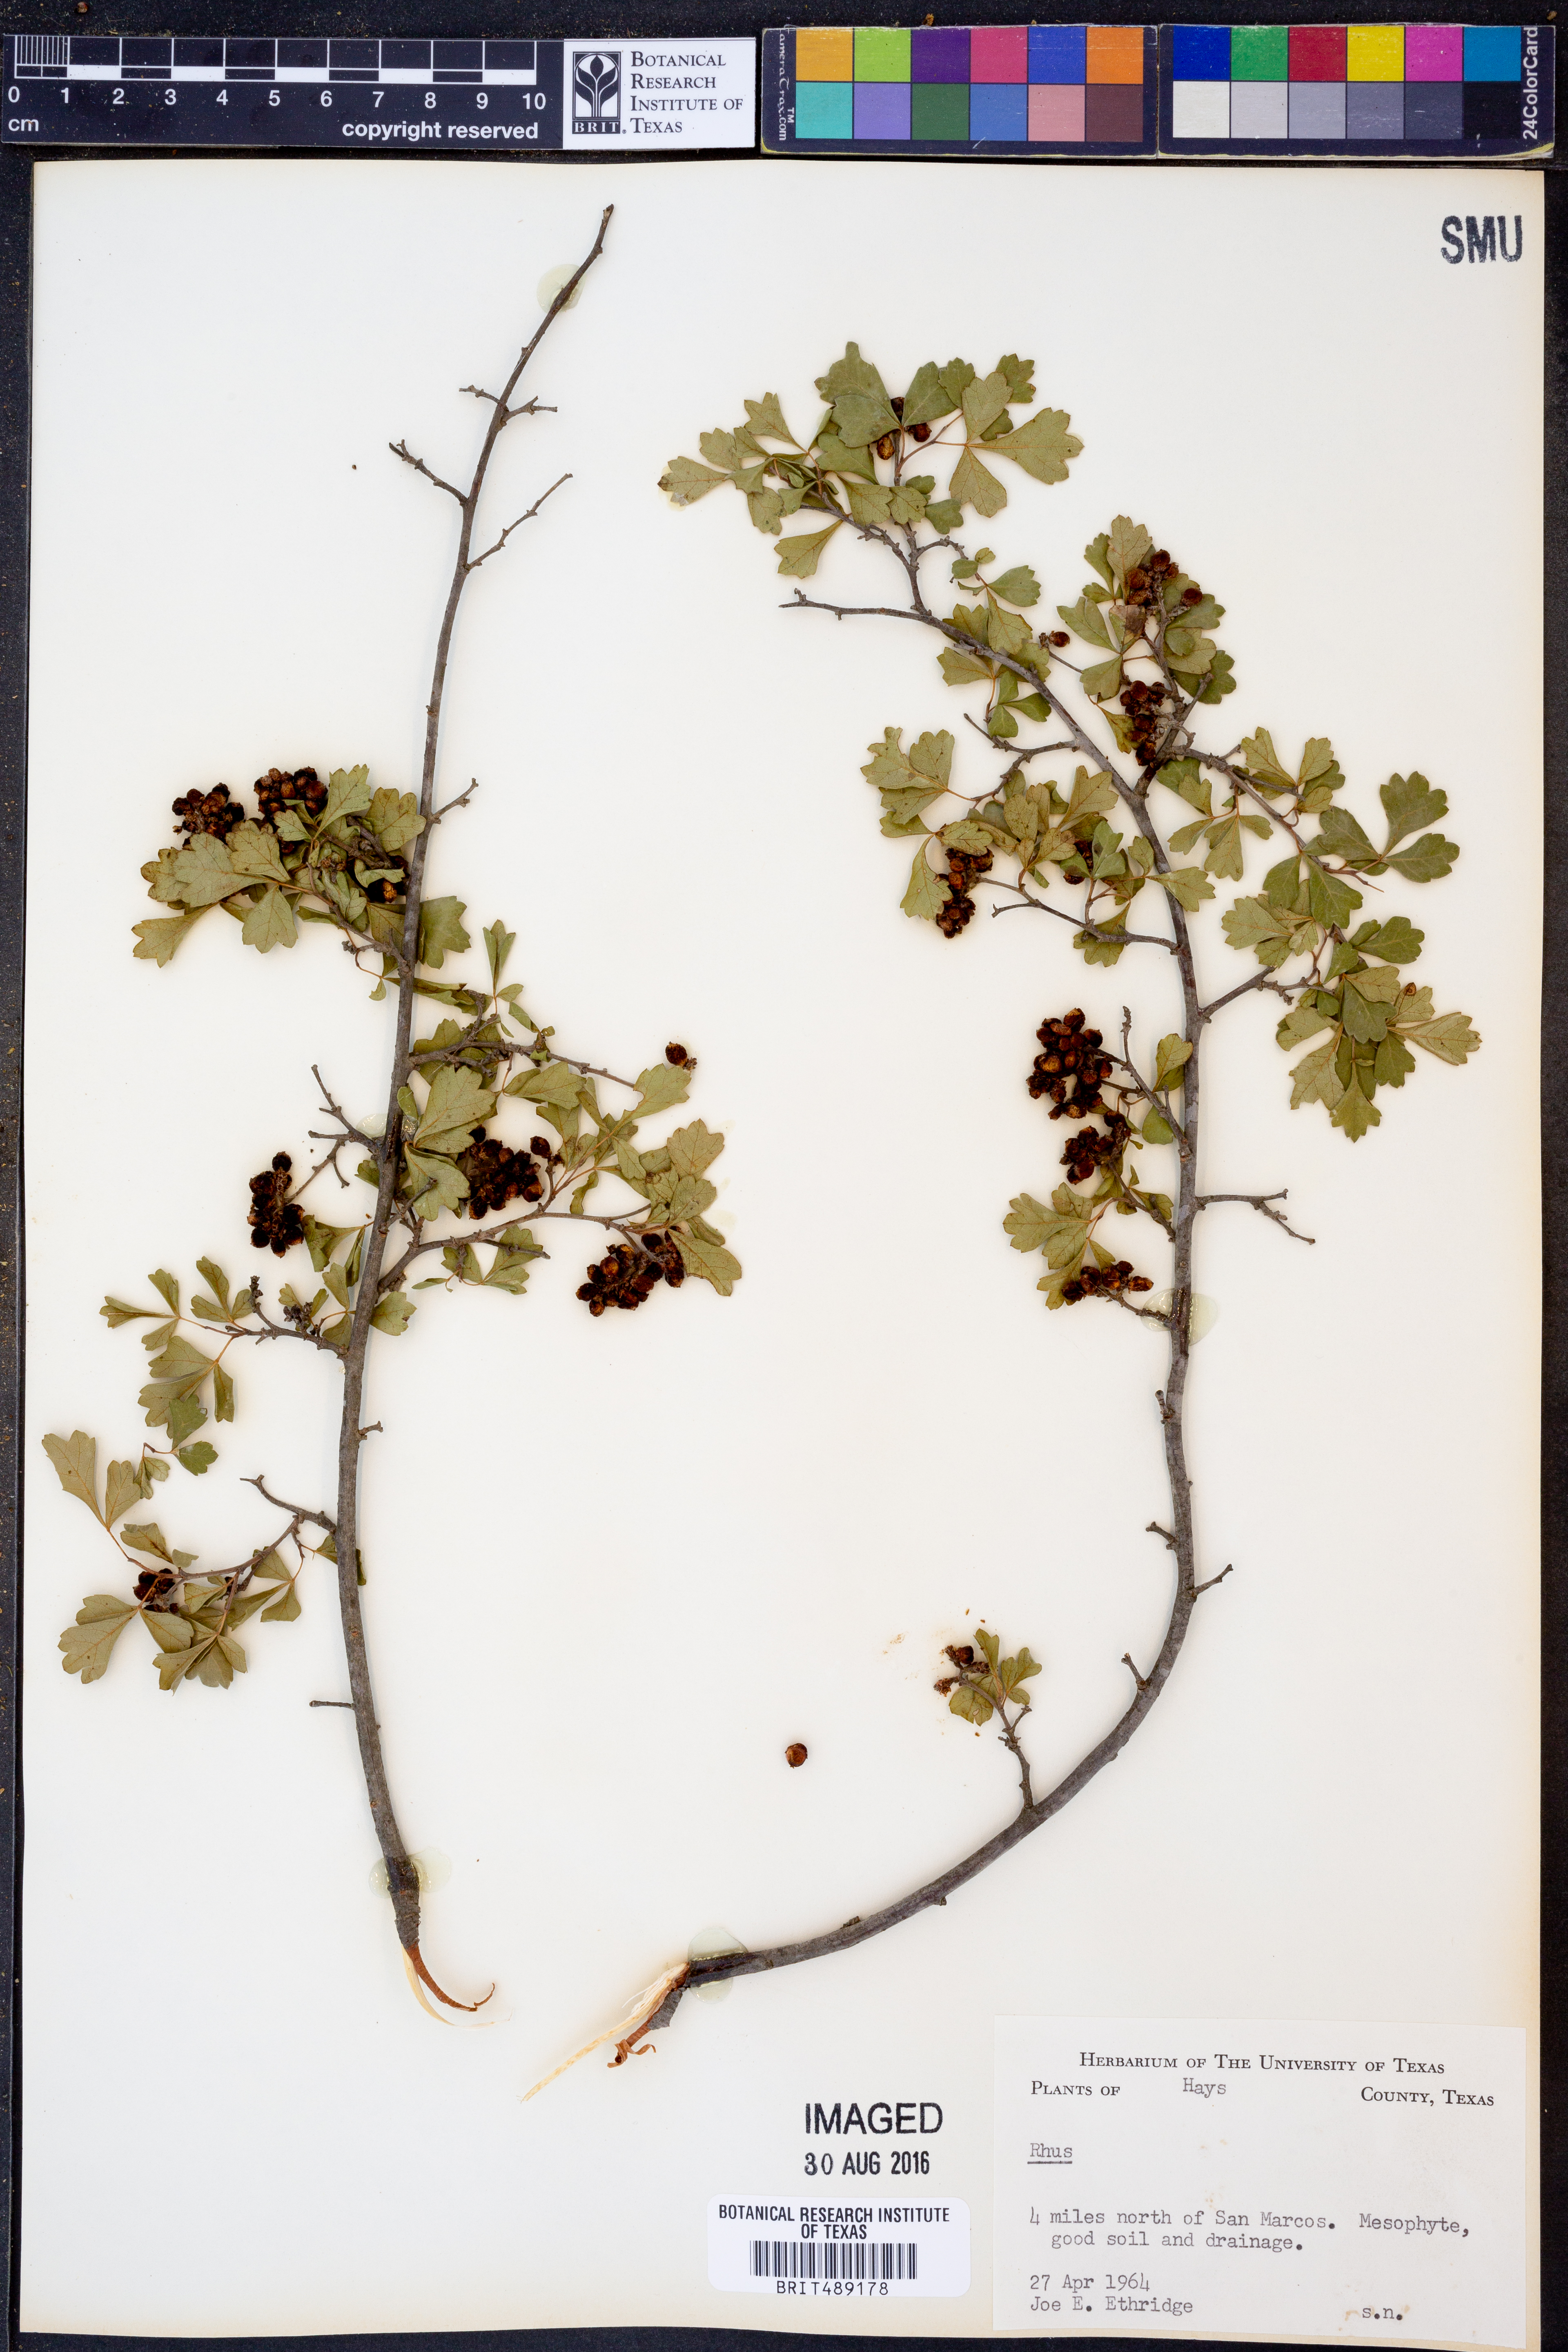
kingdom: Plantae
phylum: Tracheophyta
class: Magnoliopsida
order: Sapindales
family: Anacardiaceae
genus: Rhus
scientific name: Rhus
